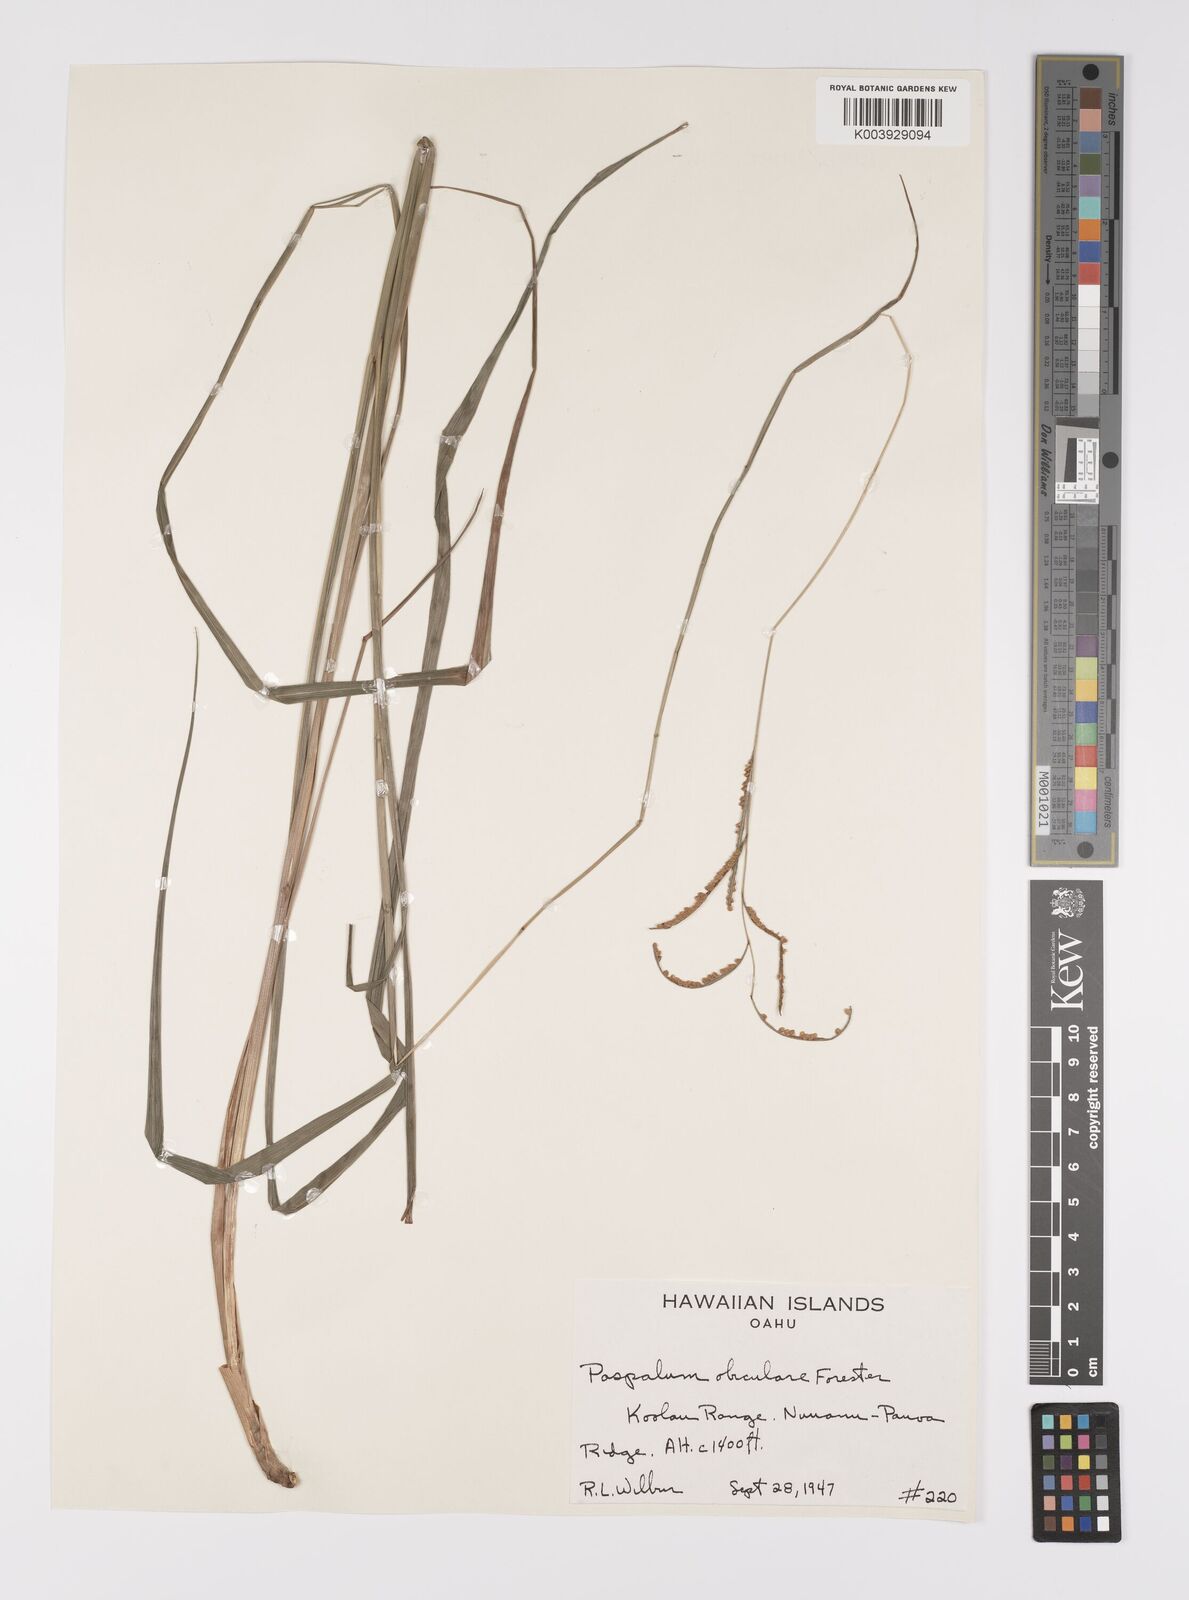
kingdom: Plantae
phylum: Tracheophyta
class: Liliopsida
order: Poales
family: Poaceae
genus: Paspalum
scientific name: Paspalum scrobiculatum
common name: Kodo millet
